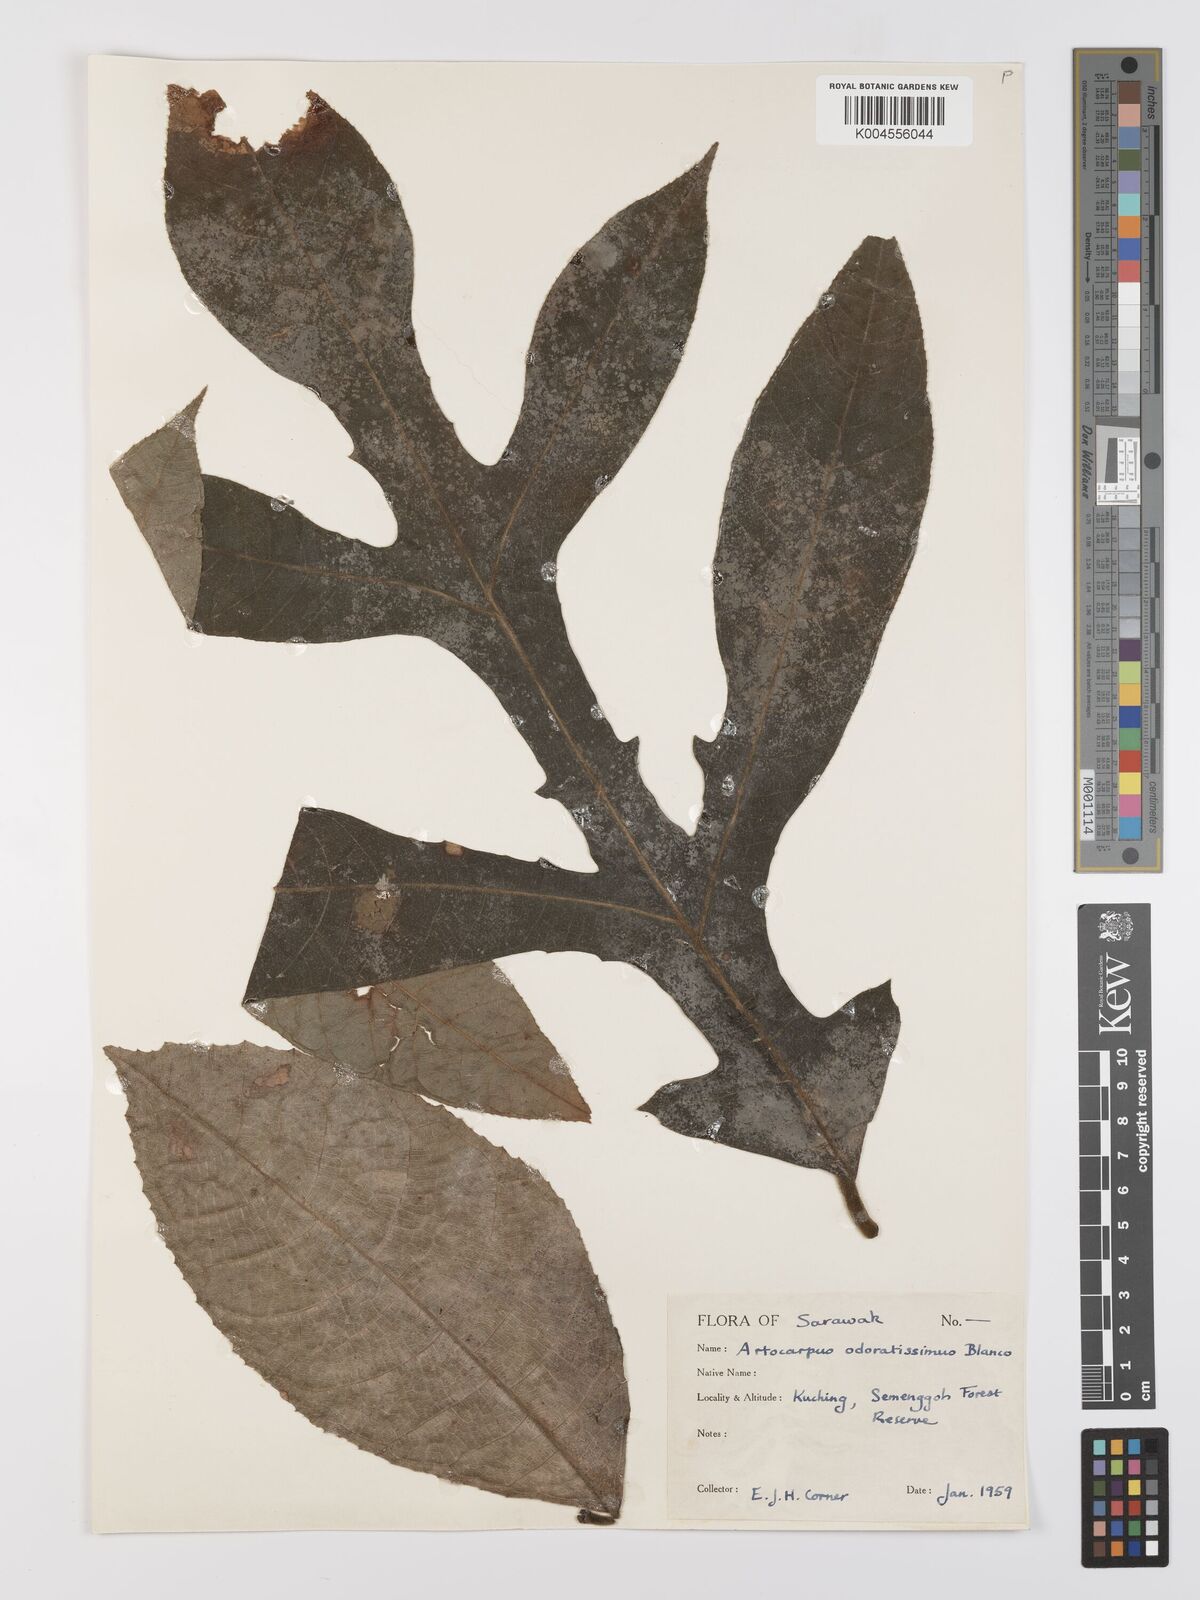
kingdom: Plantae
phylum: Tracheophyta
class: Magnoliopsida
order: Rosales
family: Moraceae
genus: Artocarpus
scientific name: Artocarpus odoratissimus
